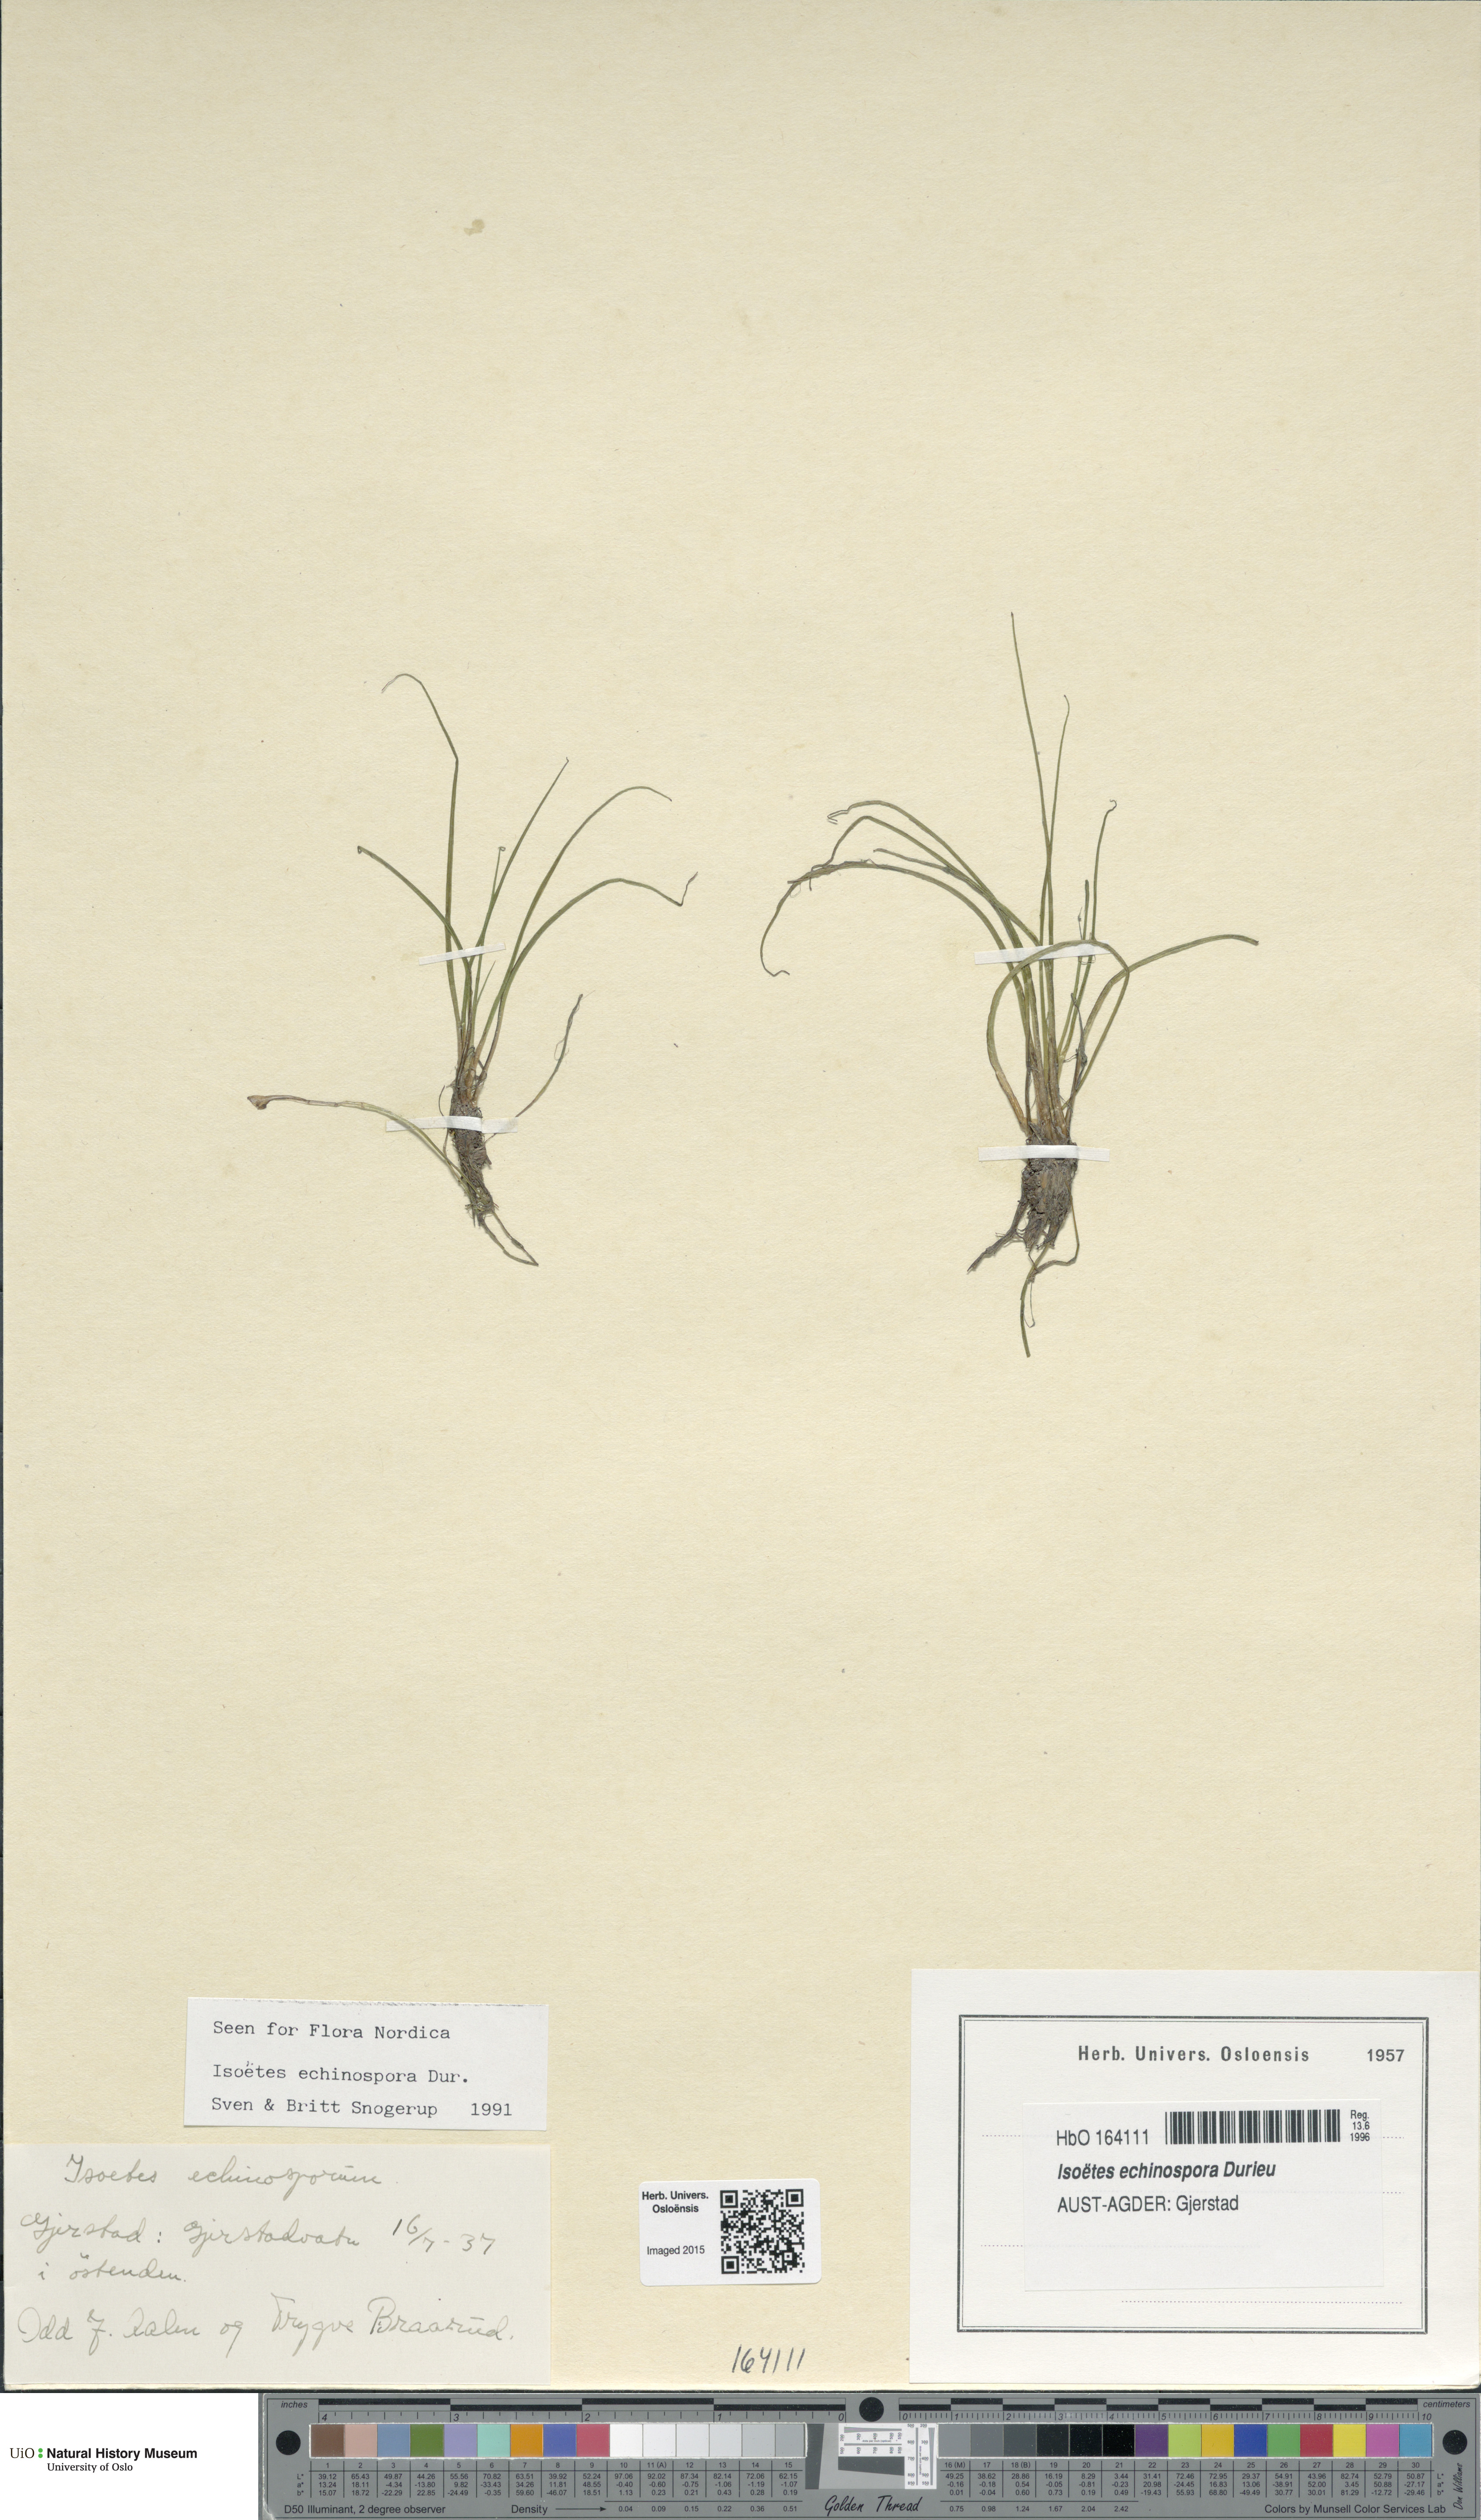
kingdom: Plantae
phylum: Tracheophyta
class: Lycopodiopsida
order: Isoetales
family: Isoetaceae
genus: Isoetes
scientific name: Isoetes echinospora
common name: Spring quillwort
